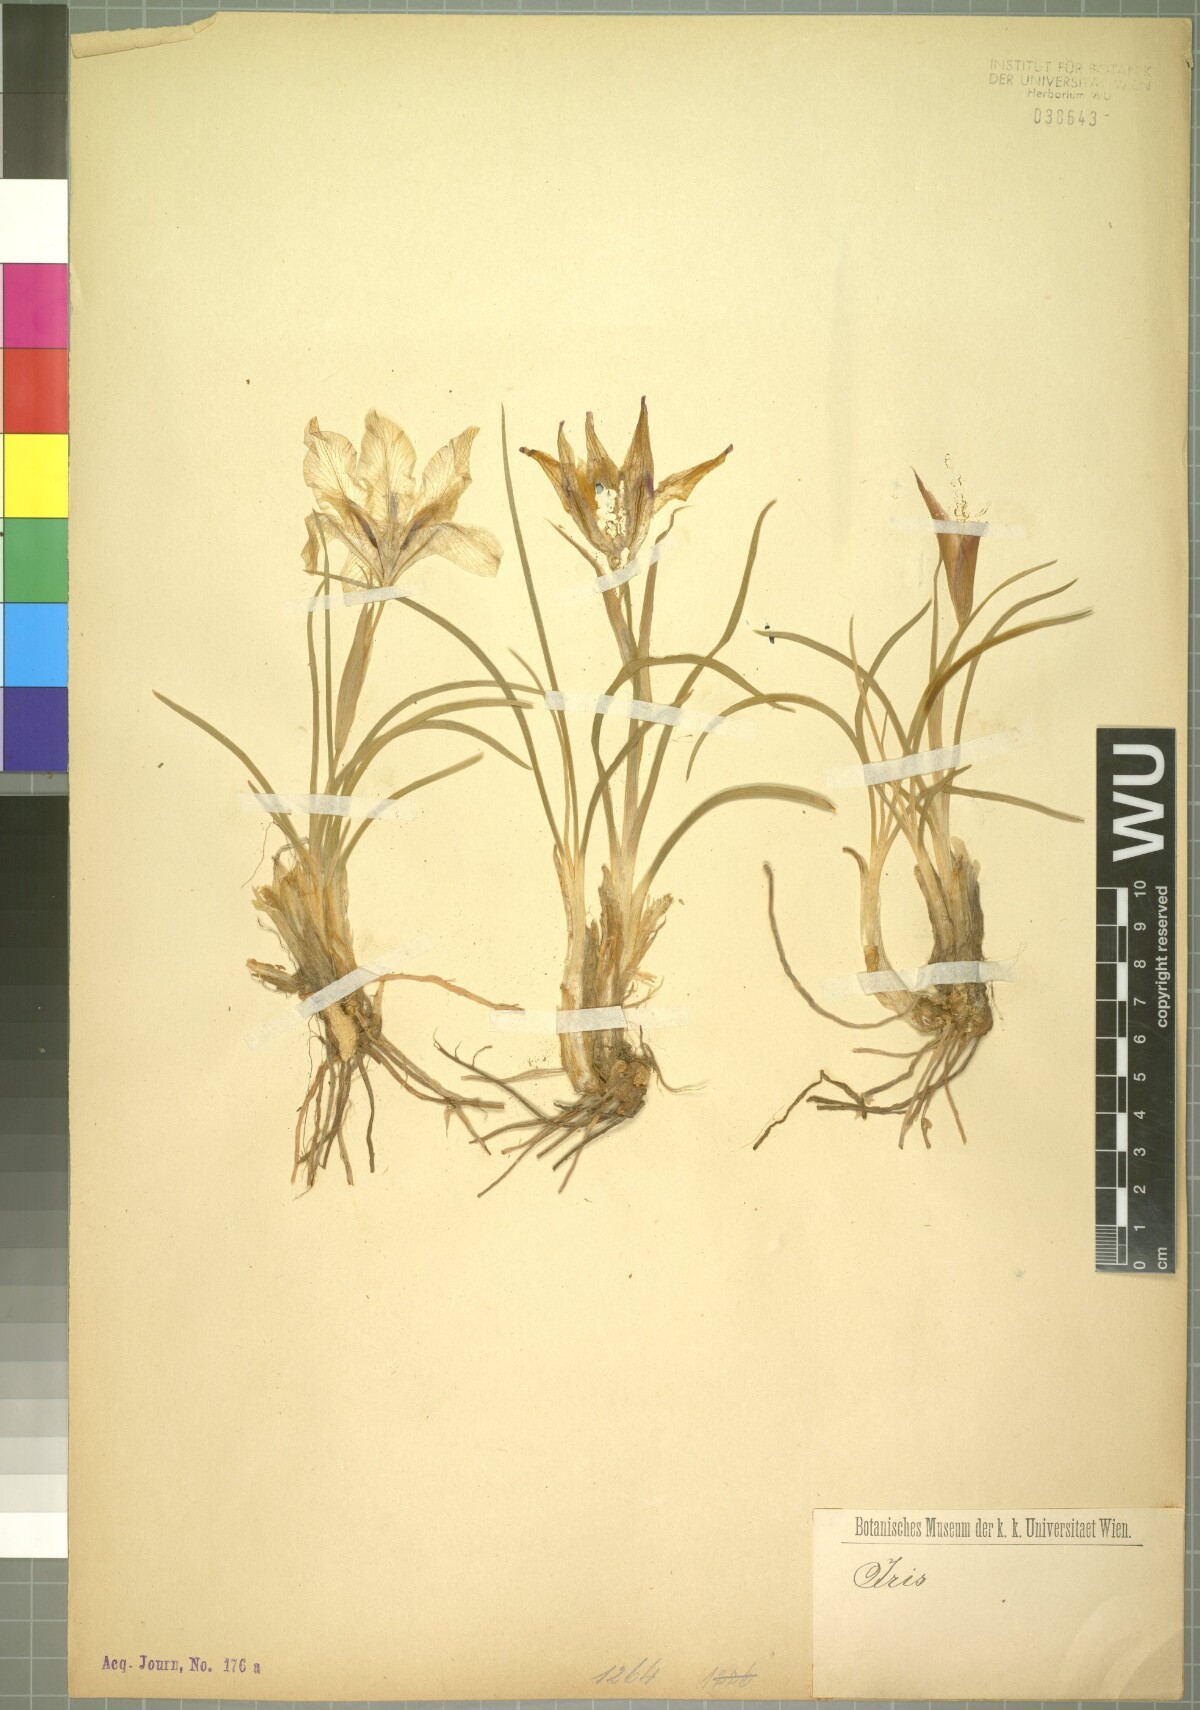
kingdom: Plantae
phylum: Tracheophyta
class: Liliopsida
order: Asparagales
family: Iridaceae
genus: Iris
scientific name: Iris meda
